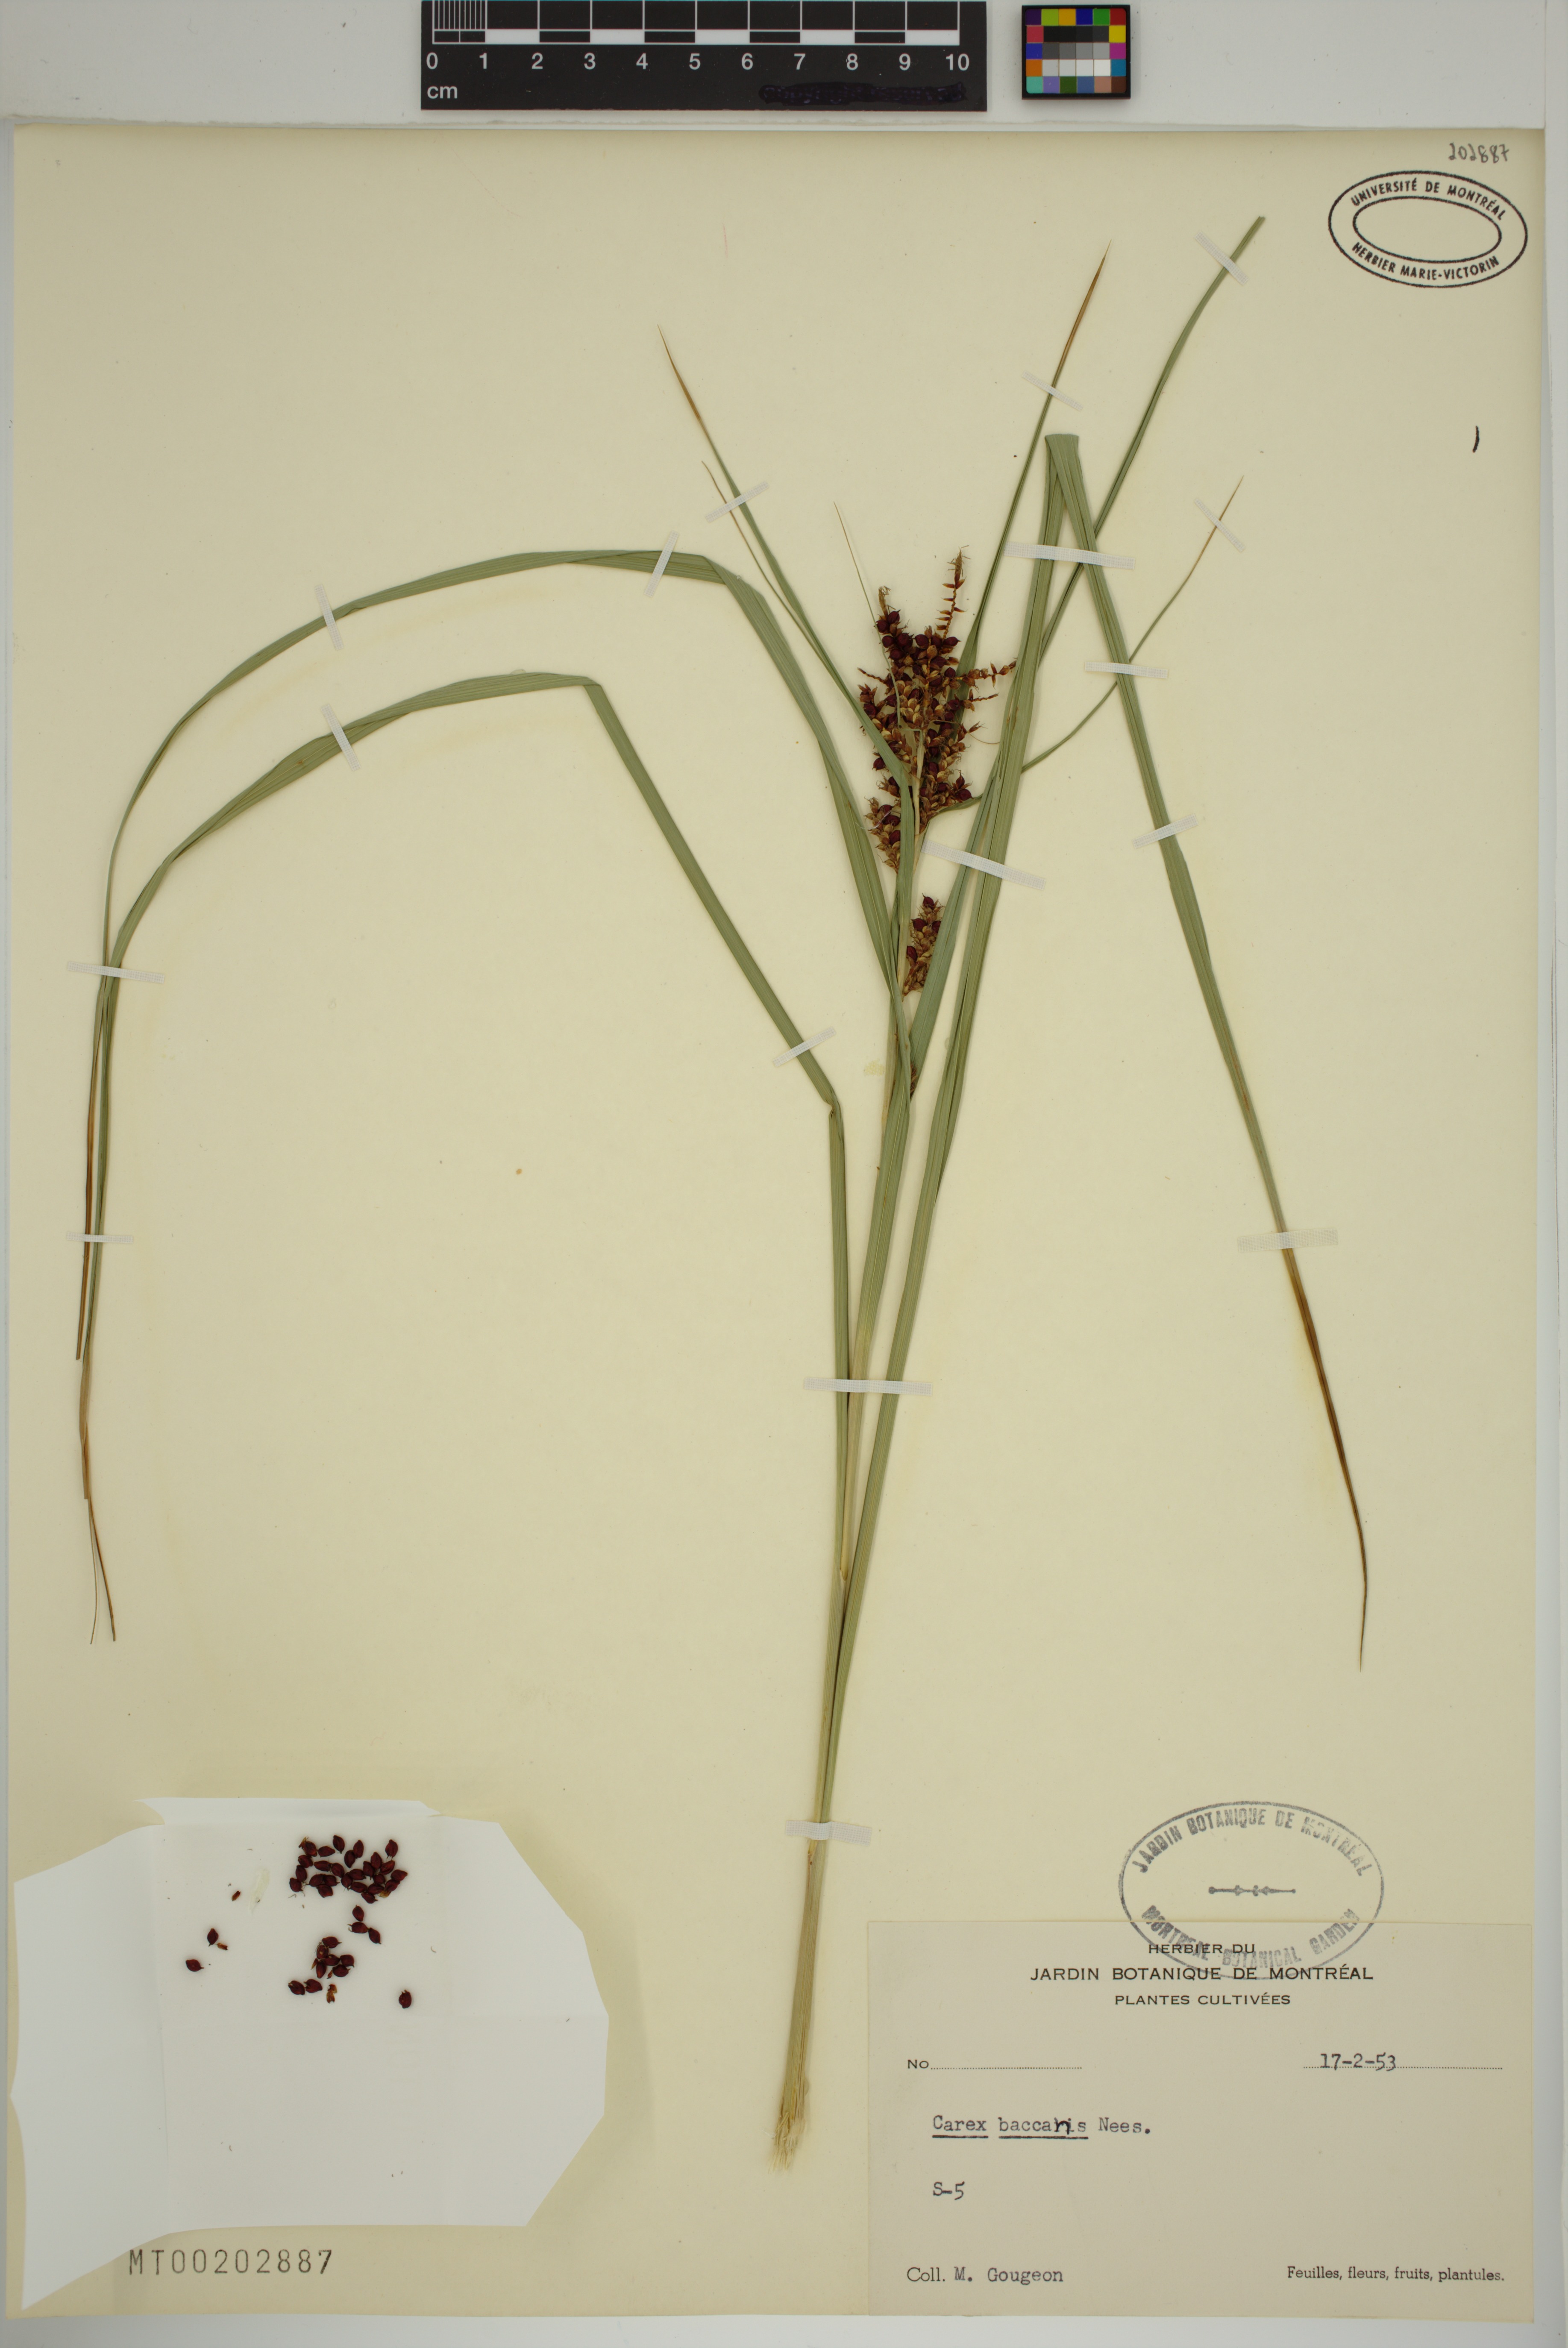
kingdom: Plantae
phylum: Tracheophyta
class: Liliopsida
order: Poales
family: Cyperaceae
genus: Carex
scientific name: Carex baccans
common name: Crimson seeded sedge
